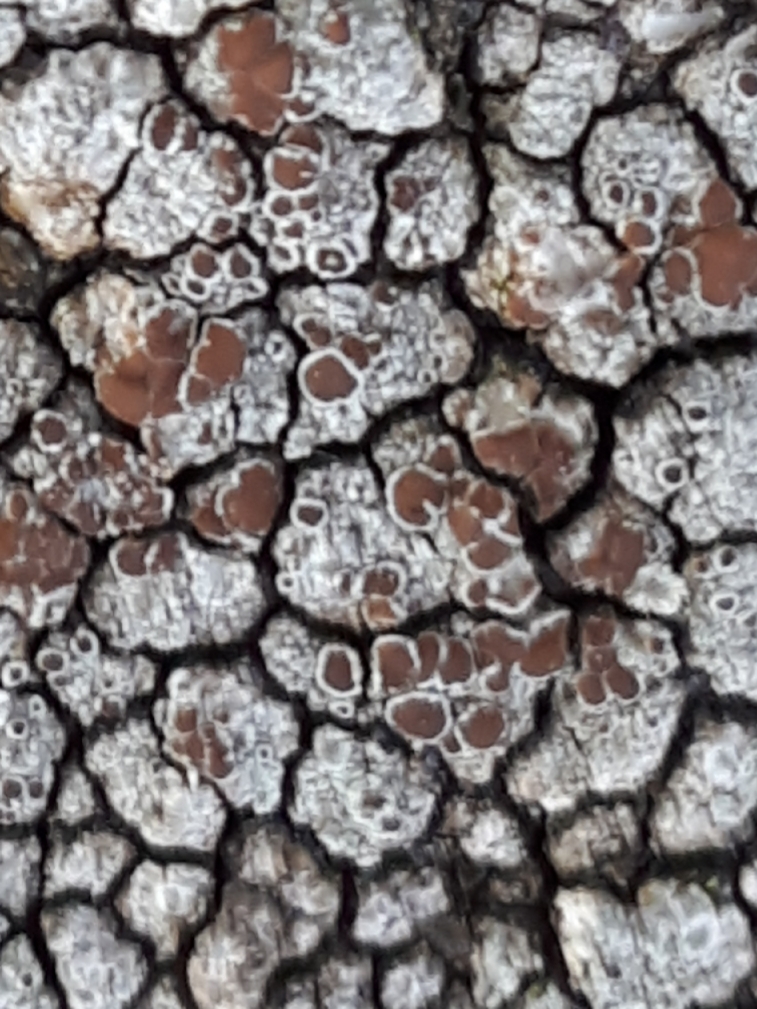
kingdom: Fungi
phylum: Ascomycota
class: Lecanoromycetes
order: Lecanorales
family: Lecanoraceae
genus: Lecanora
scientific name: Lecanora campestris
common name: mur-kantskivelav
